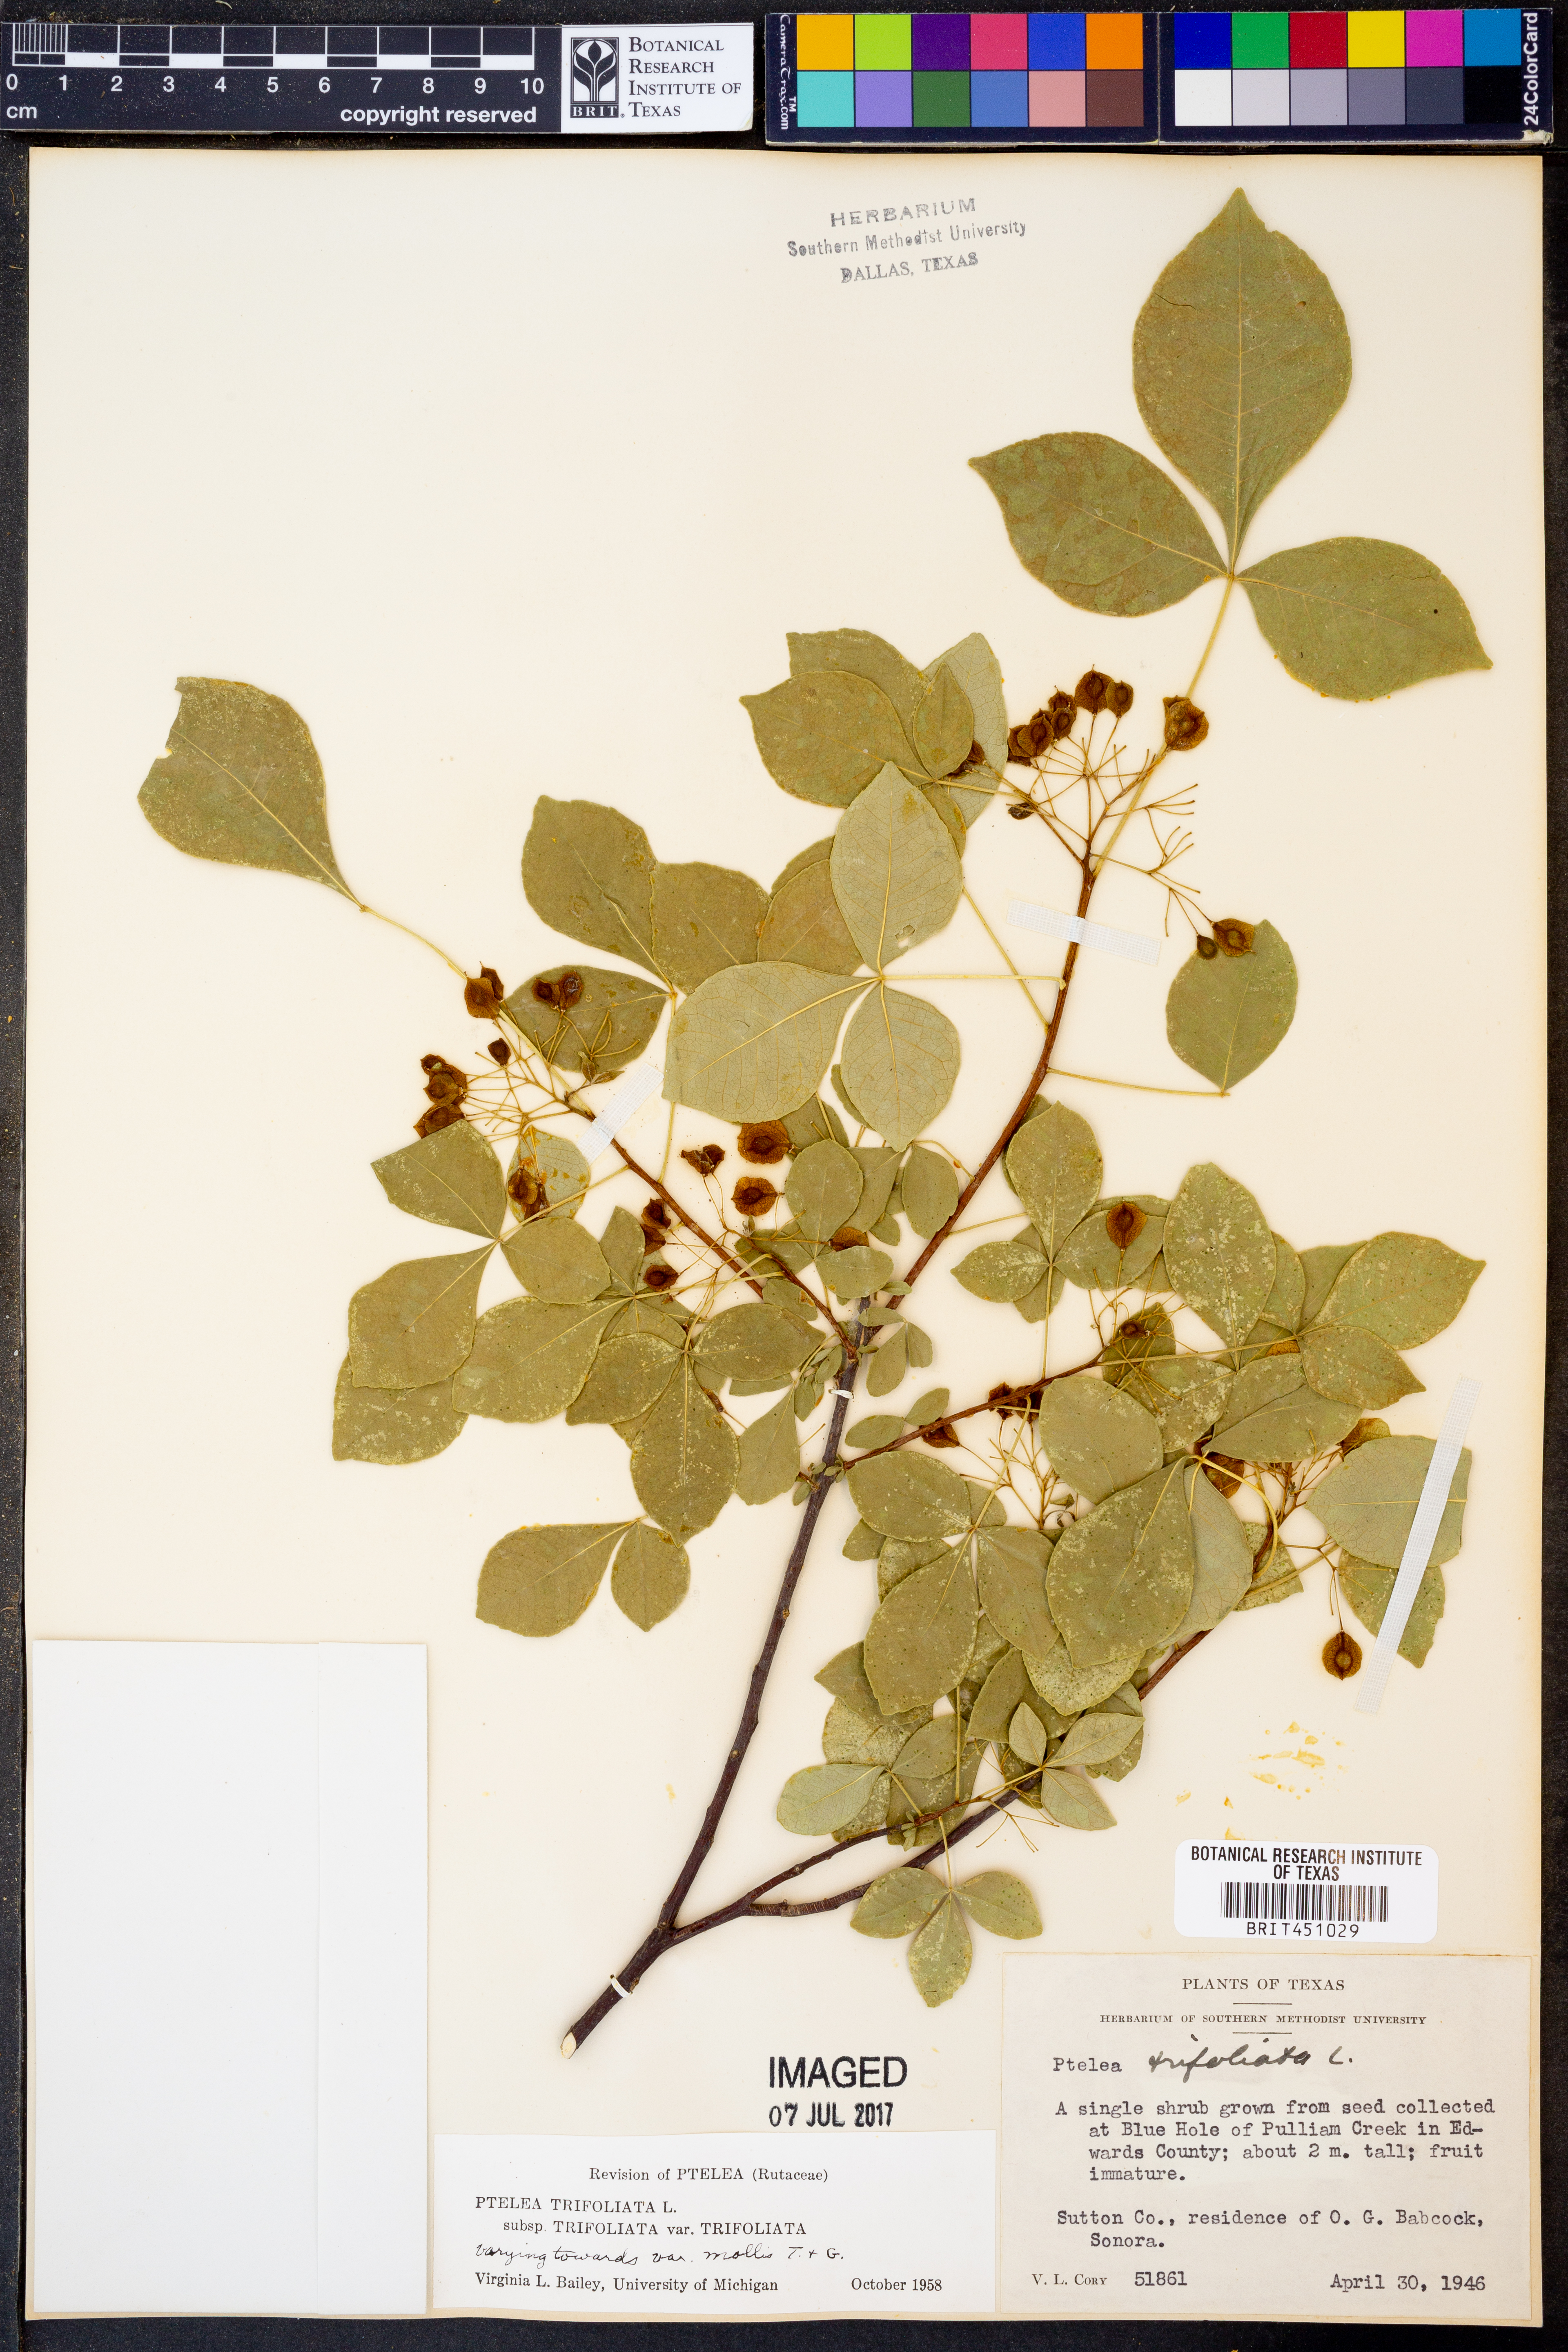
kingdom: Plantae
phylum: Tracheophyta
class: Magnoliopsida
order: Sapindales
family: Rutaceae
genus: Ptelea
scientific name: Ptelea trifoliata
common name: Common hop-tree
